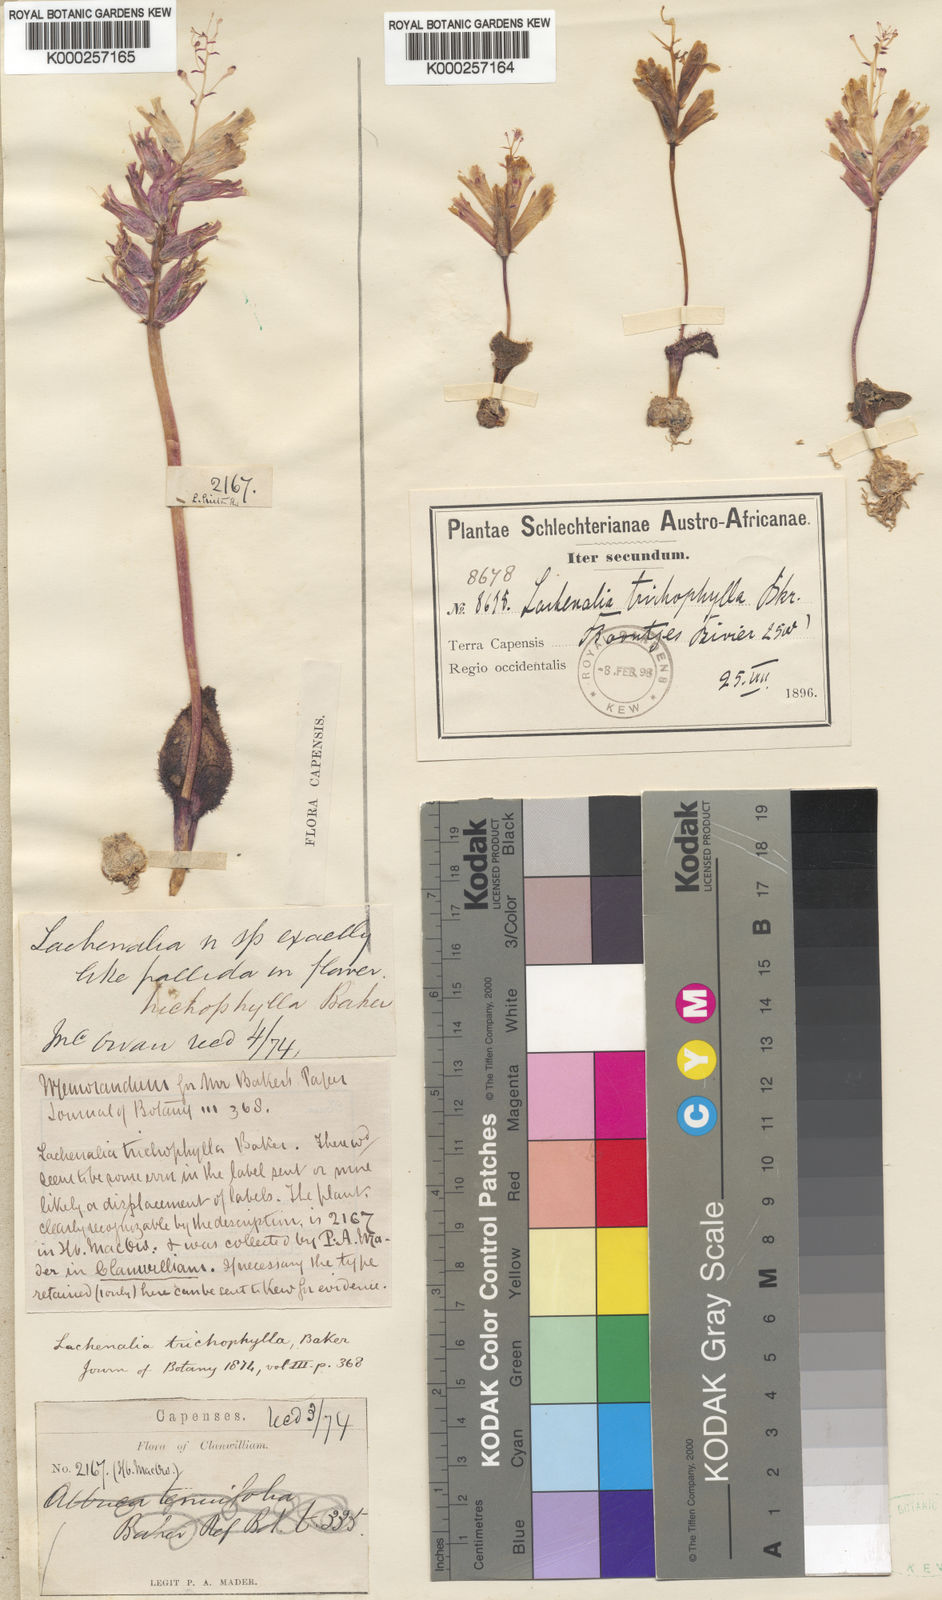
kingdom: Plantae
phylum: Tracheophyta
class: Liliopsida
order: Asparagales
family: Asparagaceae
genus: Lachenalia
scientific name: Lachenalia trichophylla
